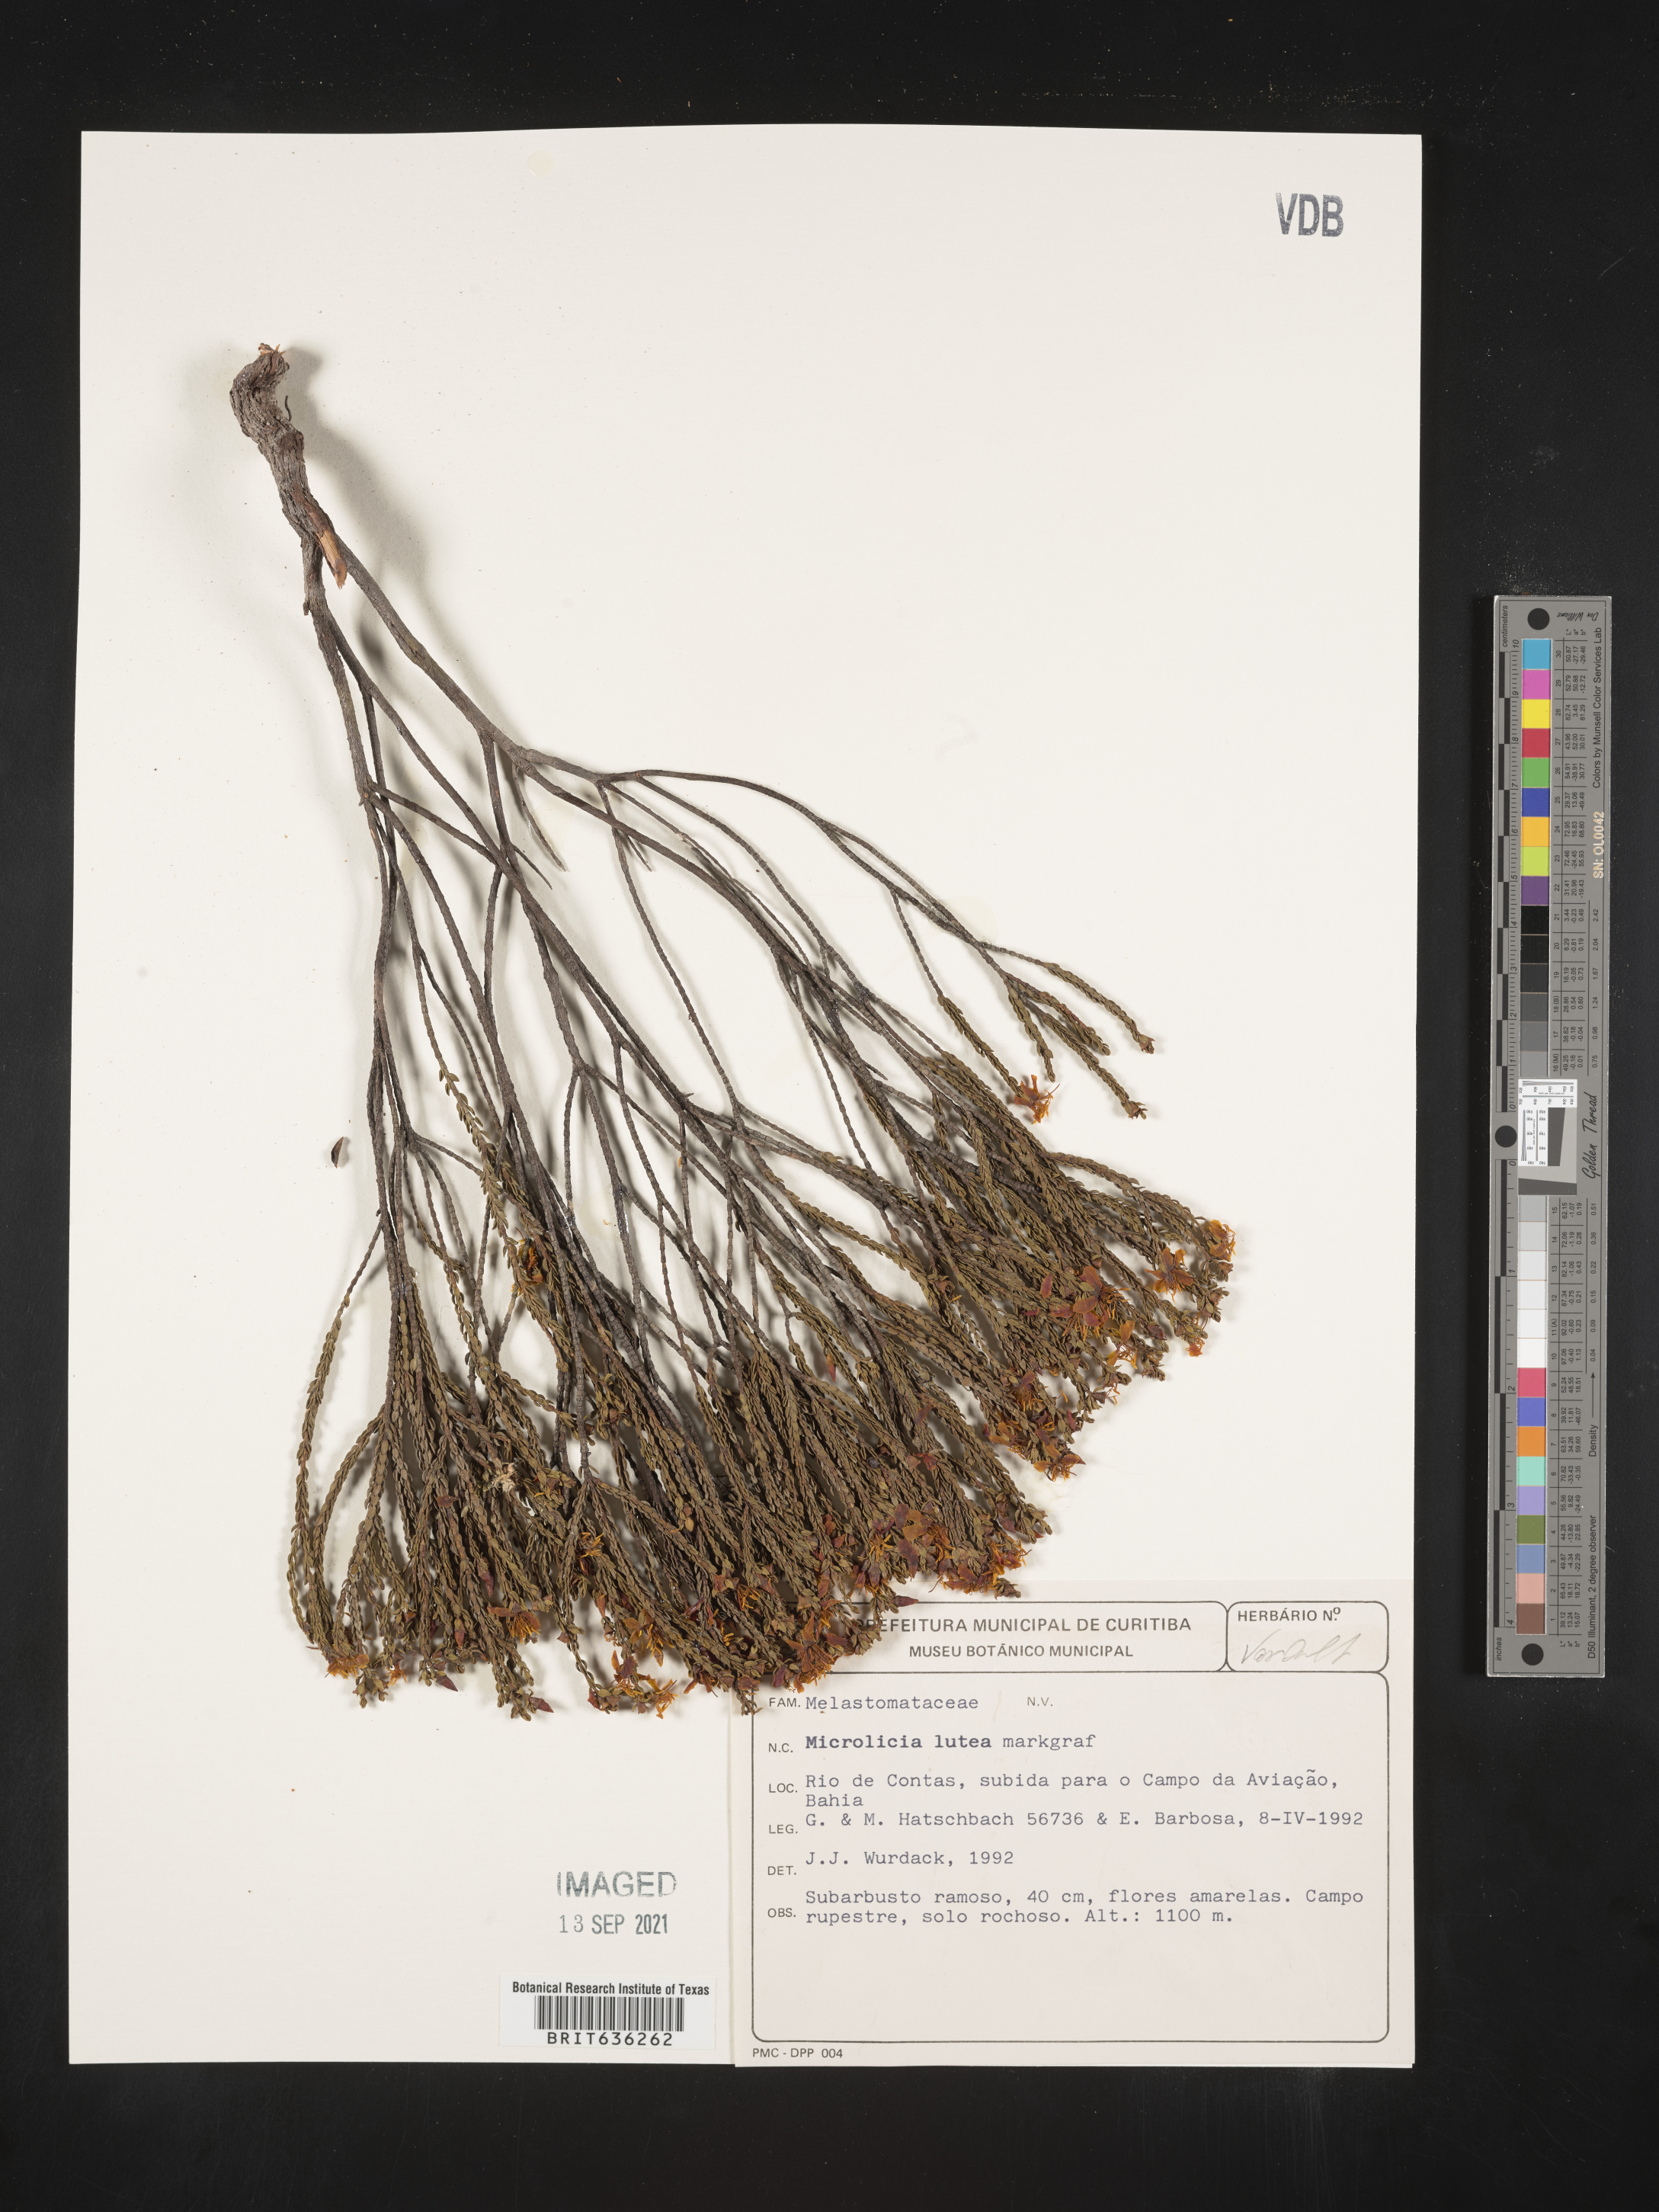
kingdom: Plantae
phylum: Tracheophyta
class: Magnoliopsida
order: Myrtales
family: Melastomataceae
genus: Microlicia
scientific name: Microlicia
